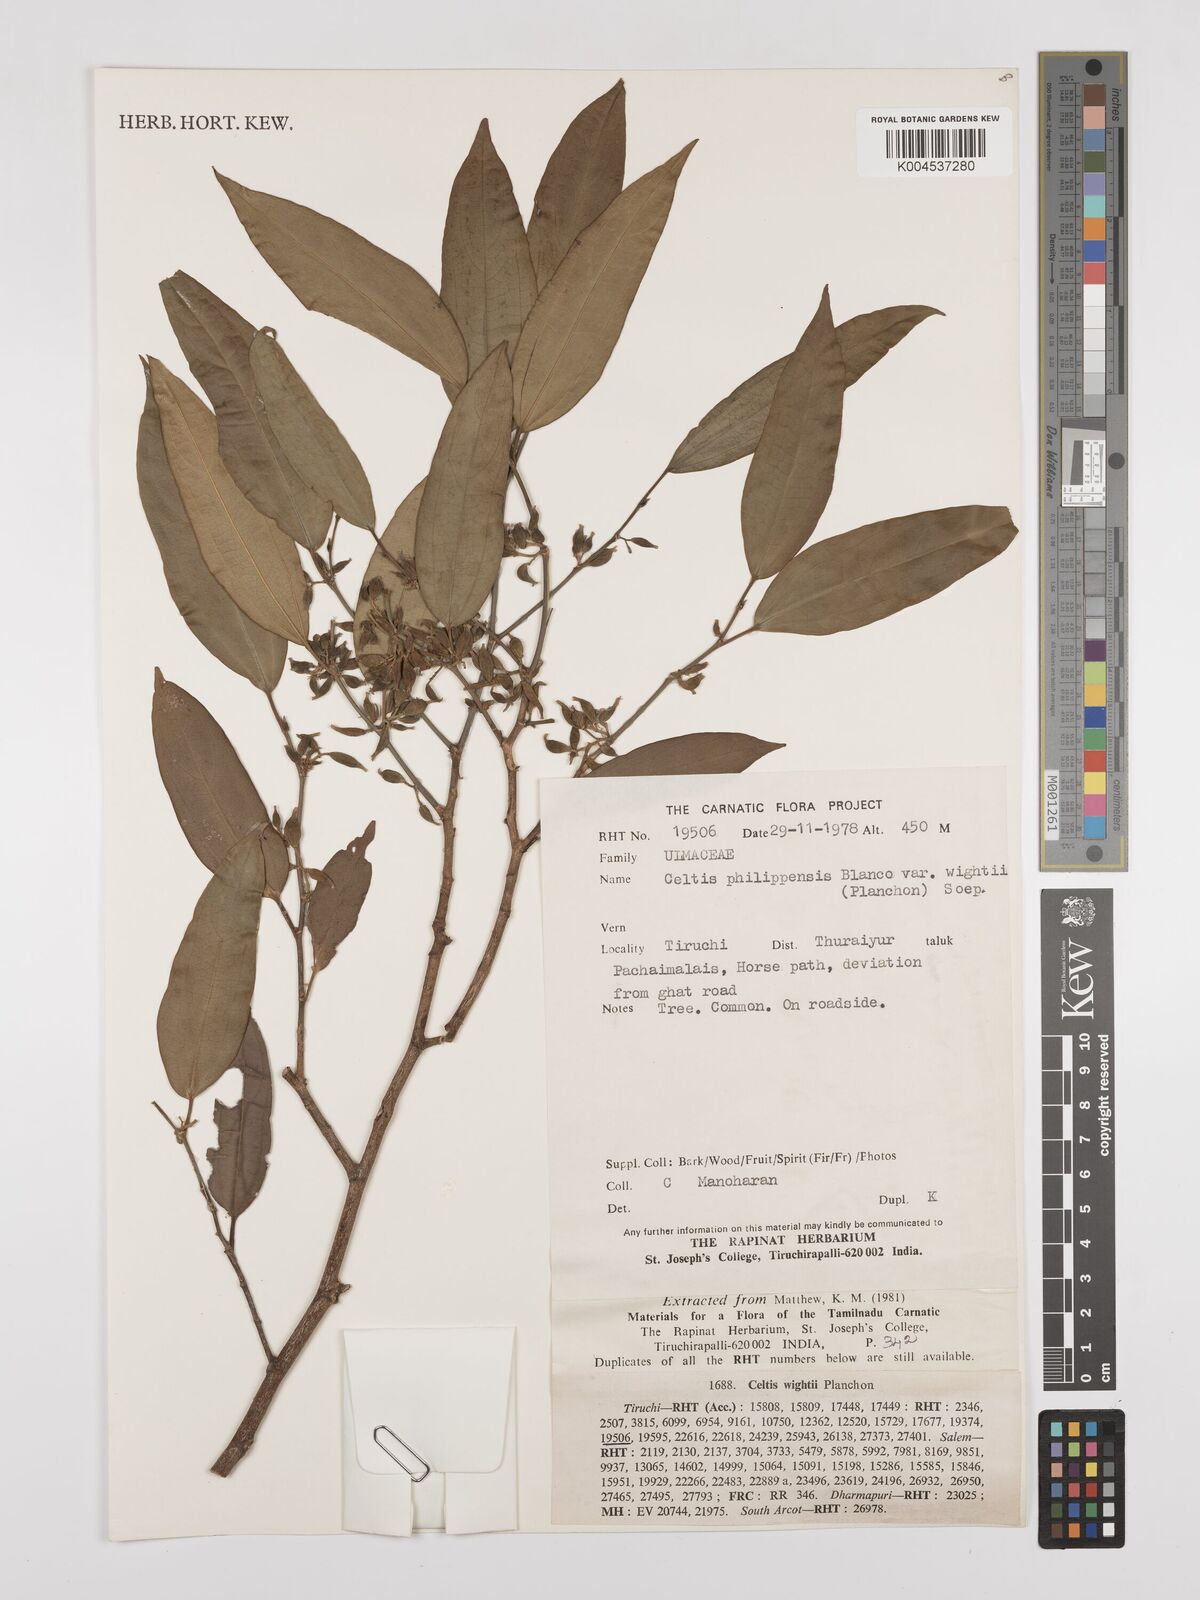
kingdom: Plantae
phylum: Tracheophyta
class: Magnoliopsida
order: Rosales
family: Cannabaceae
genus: Celtis
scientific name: Celtis philippensis
